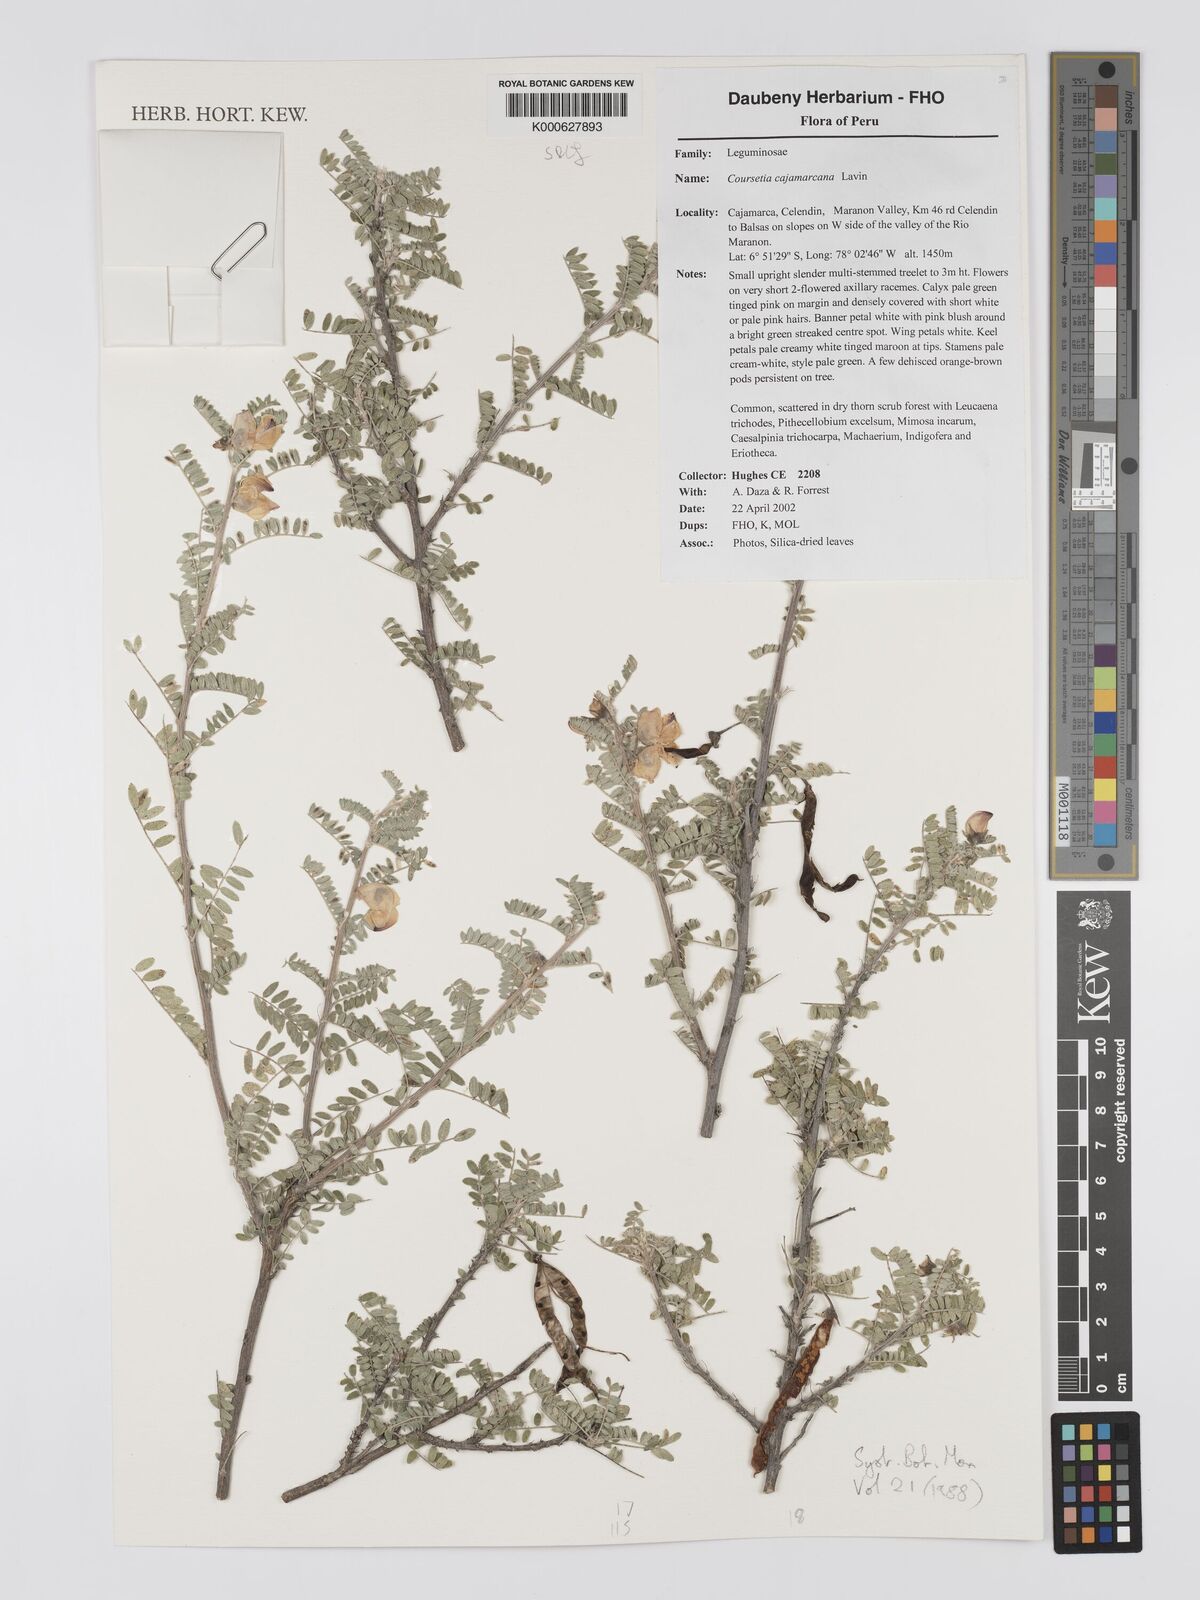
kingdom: Plantae
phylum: Tracheophyta
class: Magnoliopsida
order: Fabales
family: Fabaceae
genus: Coursetia
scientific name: Coursetia cajamarcana
